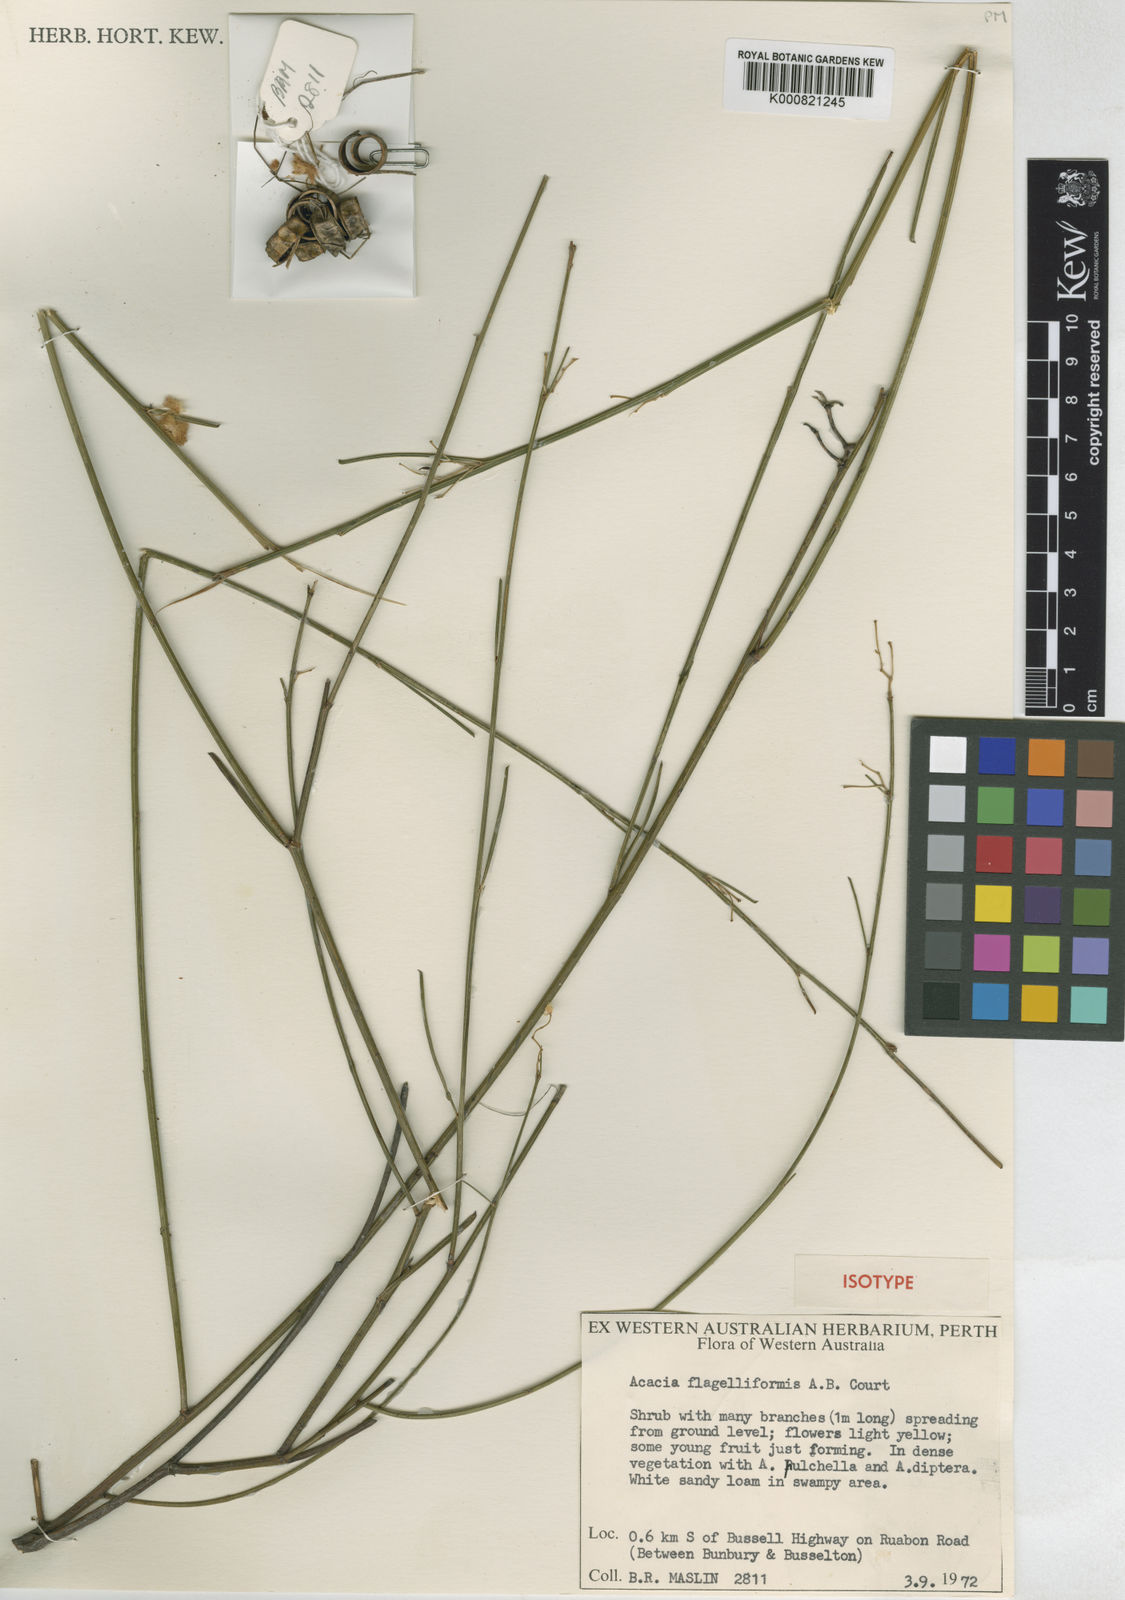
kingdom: Plantae
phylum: Tracheophyta
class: Magnoliopsida
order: Fabales
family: Fabaceae
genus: Acacia
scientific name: Acacia flagelliformis
